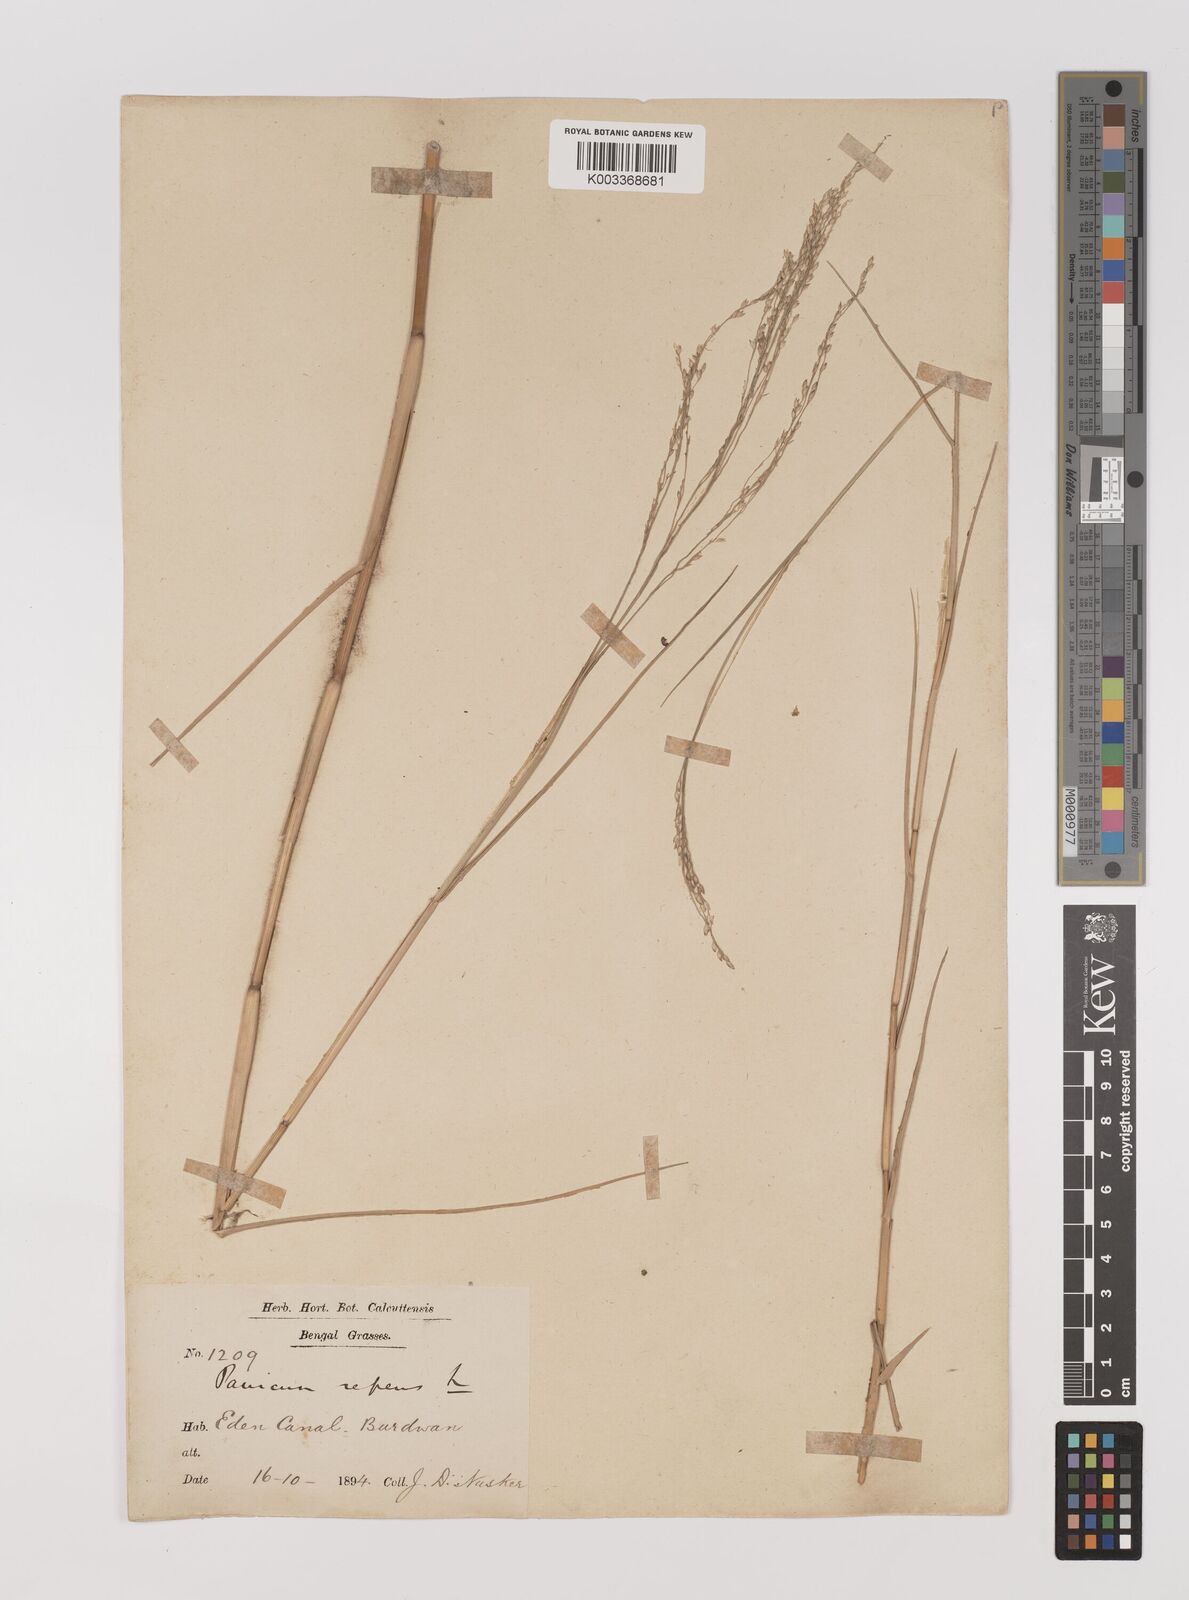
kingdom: Plantae
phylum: Tracheophyta
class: Liliopsida
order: Poales
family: Poaceae
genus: Panicum
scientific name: Panicum repens
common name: Torpedo grass
